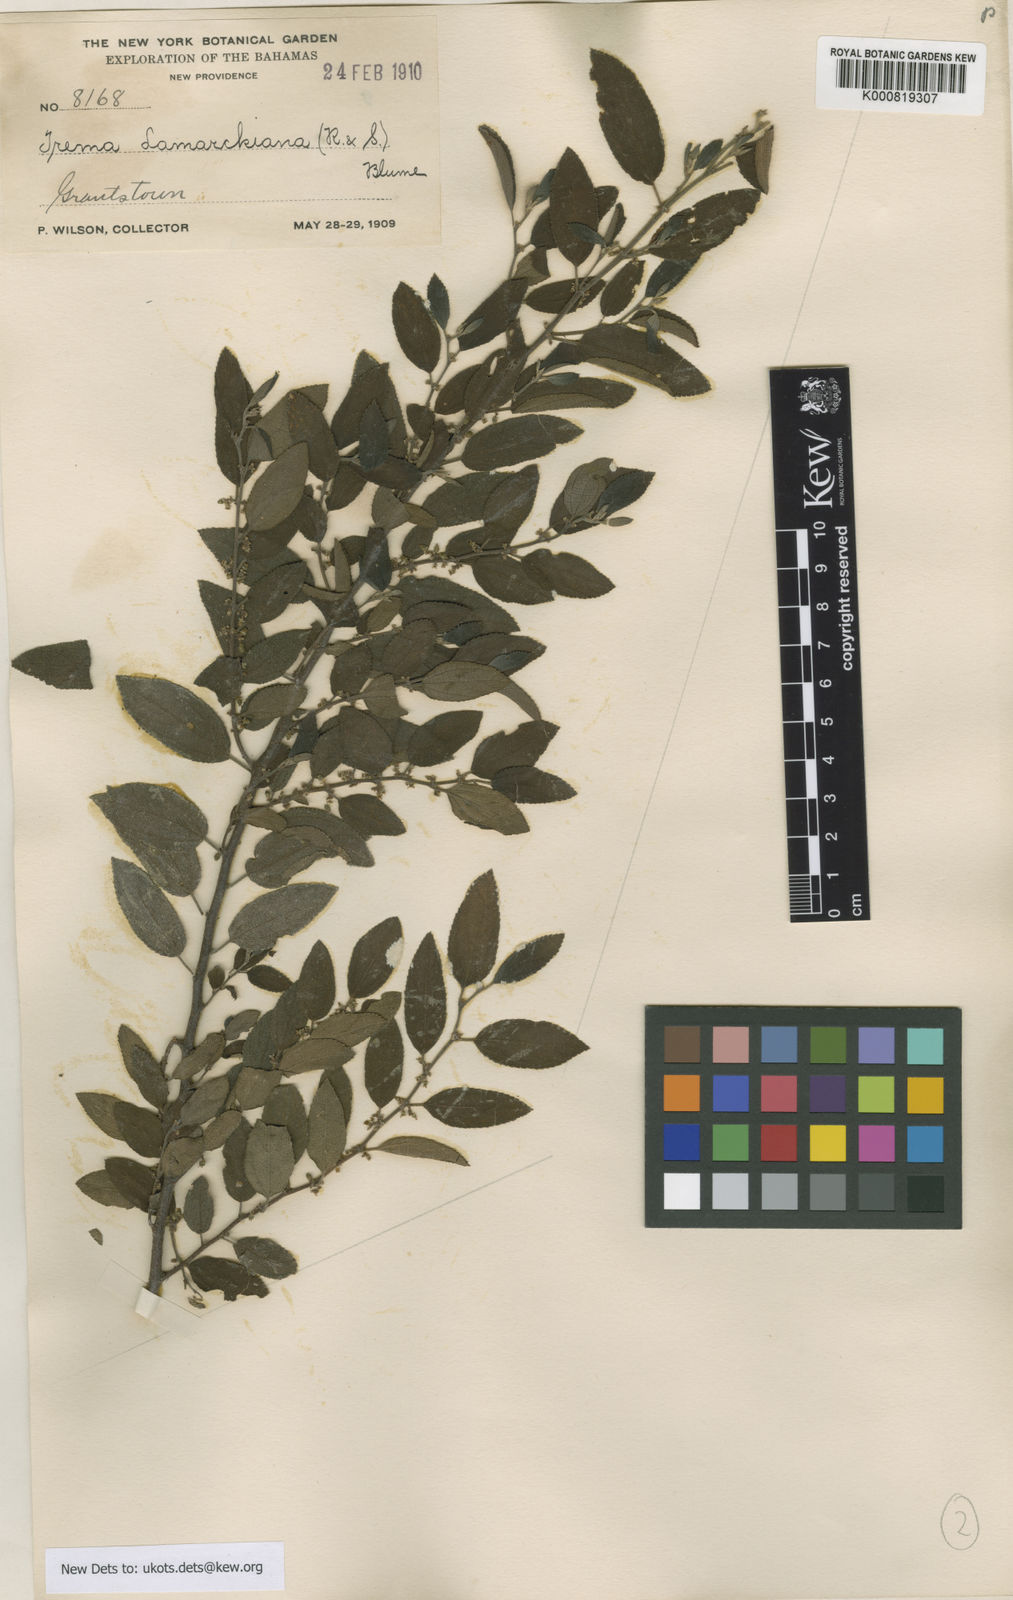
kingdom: Plantae
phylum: Tracheophyta
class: Magnoliopsida
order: Rosales
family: Cannabaceae
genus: Trema
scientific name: Trema lamarckianum
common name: Lamarck's trema
